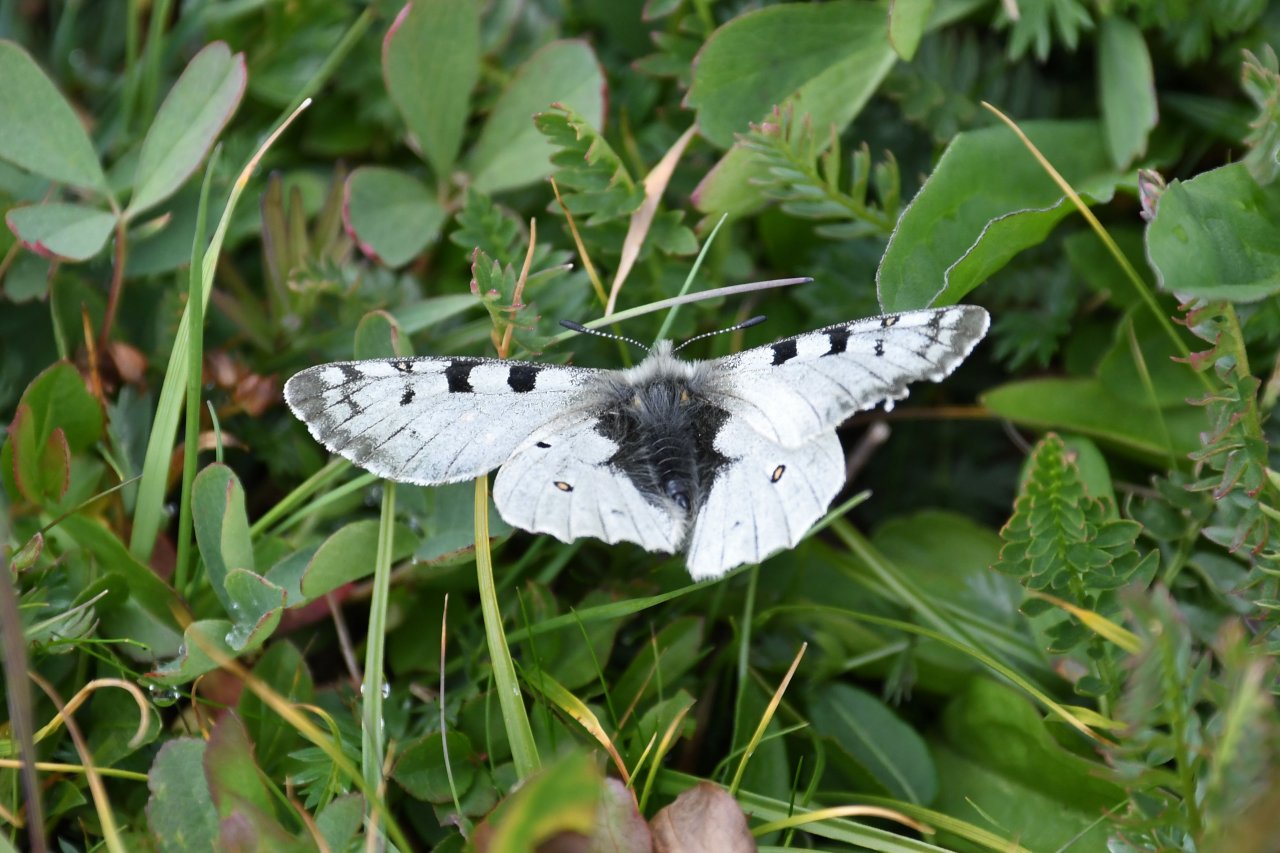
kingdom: Animalia
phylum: Arthropoda
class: Insecta
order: Lepidoptera
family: Papilionidae
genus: Parnassius
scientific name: Parnassius smintheus
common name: Rocky Mountain Parnassian
